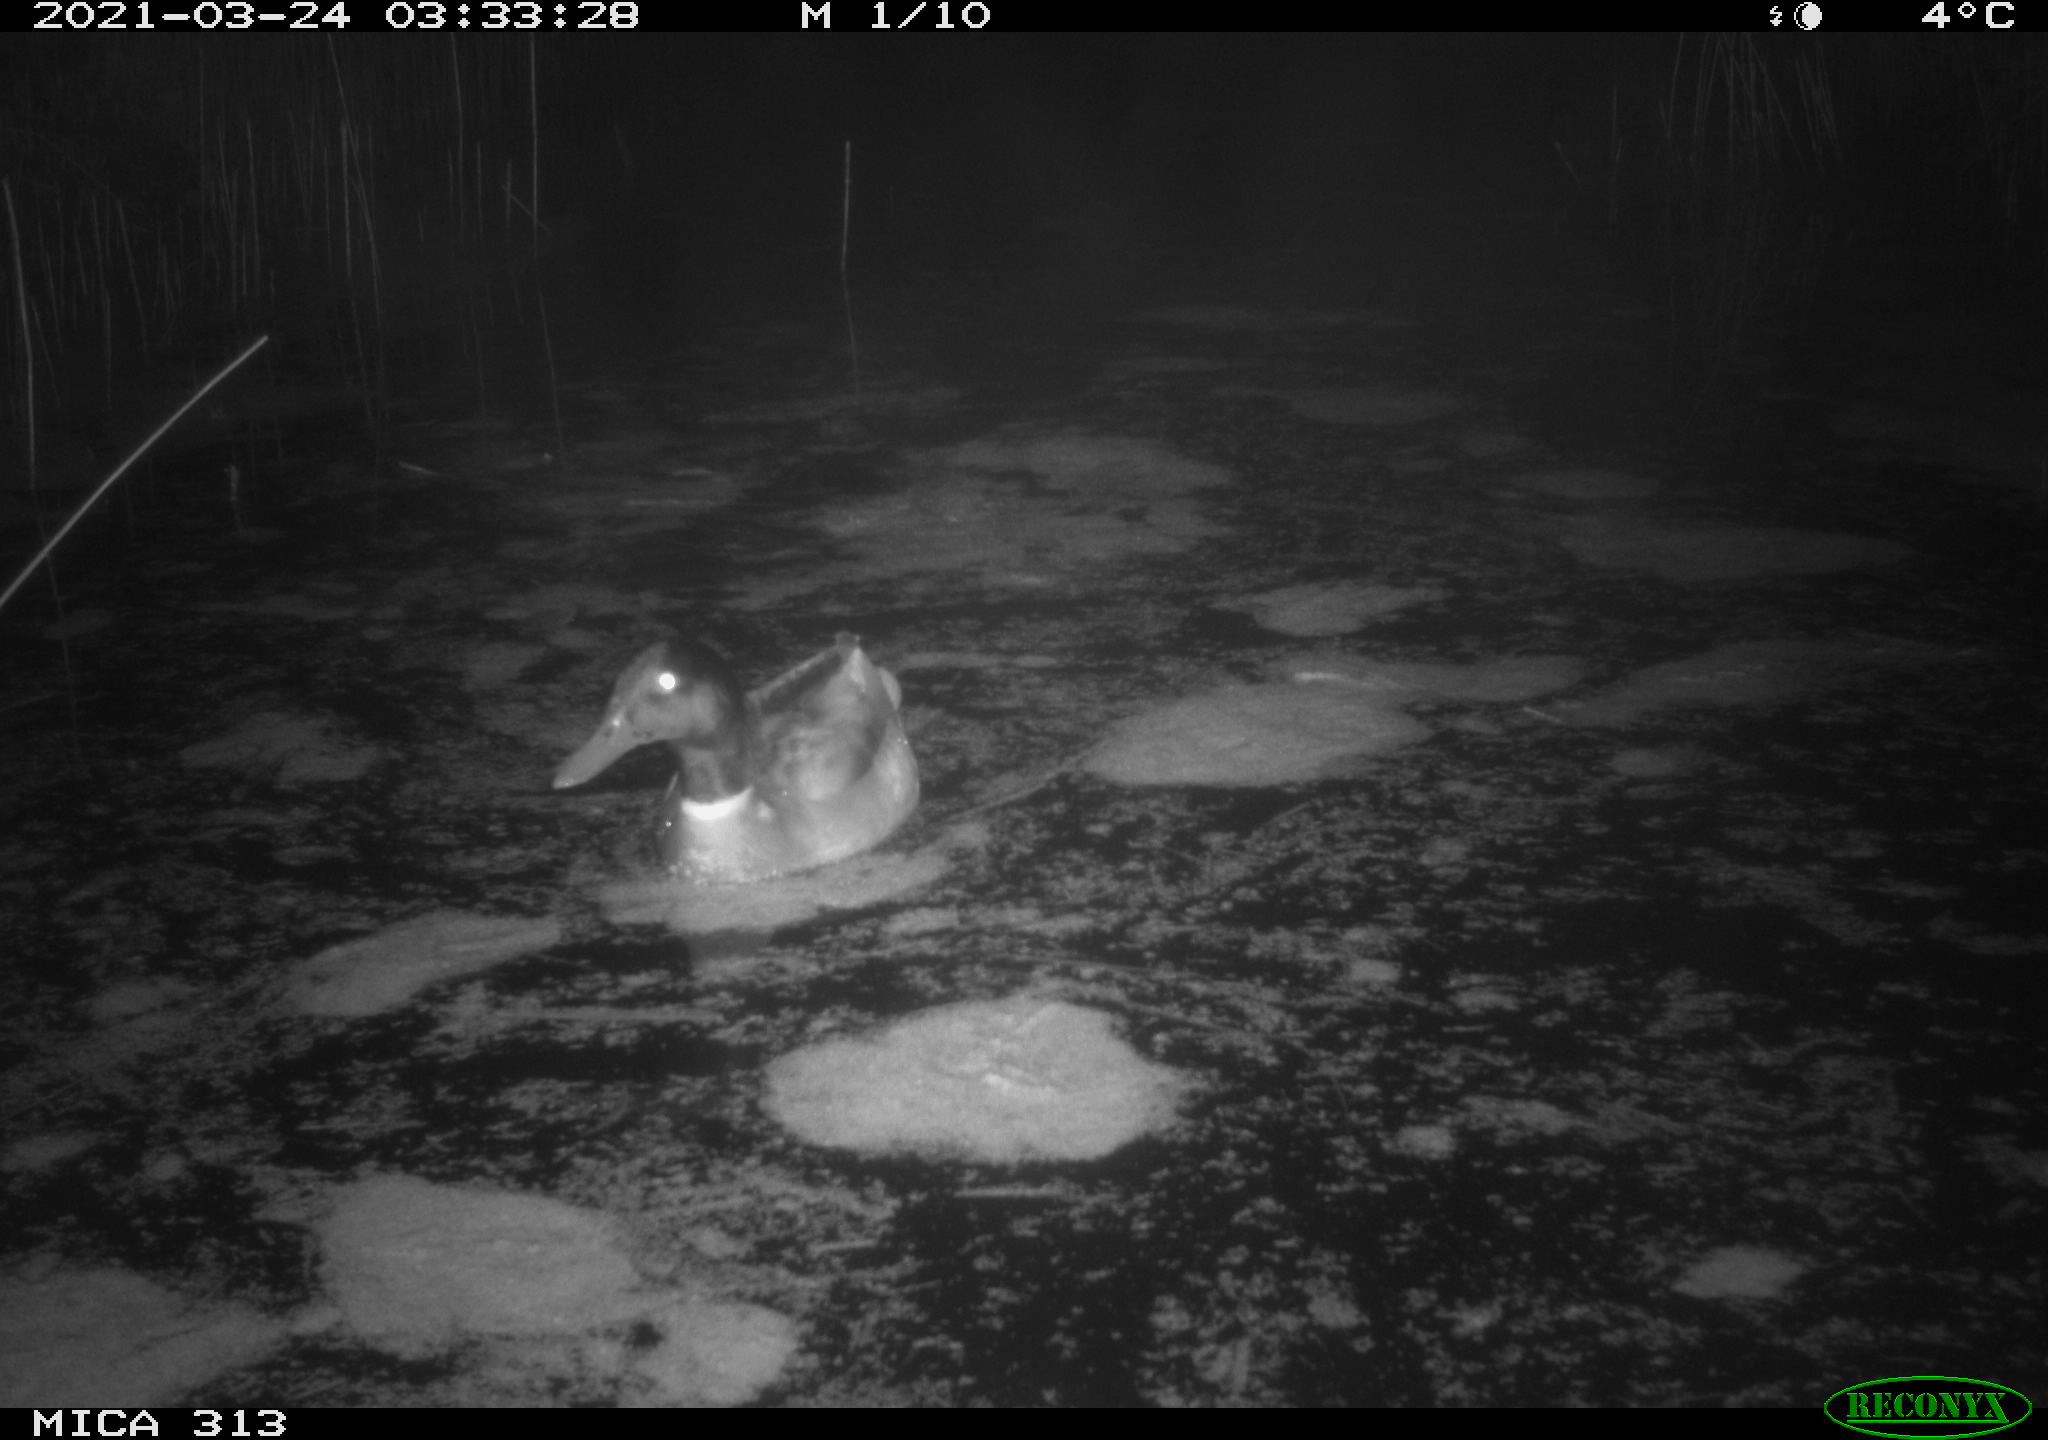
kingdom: Animalia
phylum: Chordata
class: Aves
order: Anseriformes
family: Anatidae
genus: Anas
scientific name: Anas platyrhynchos
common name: Mallard
